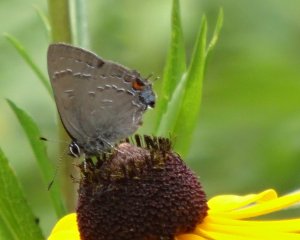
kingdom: Animalia
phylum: Arthropoda
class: Insecta
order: Lepidoptera
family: Lycaenidae
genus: Satyrium
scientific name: Satyrium calanus
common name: Banded Hairstreak
